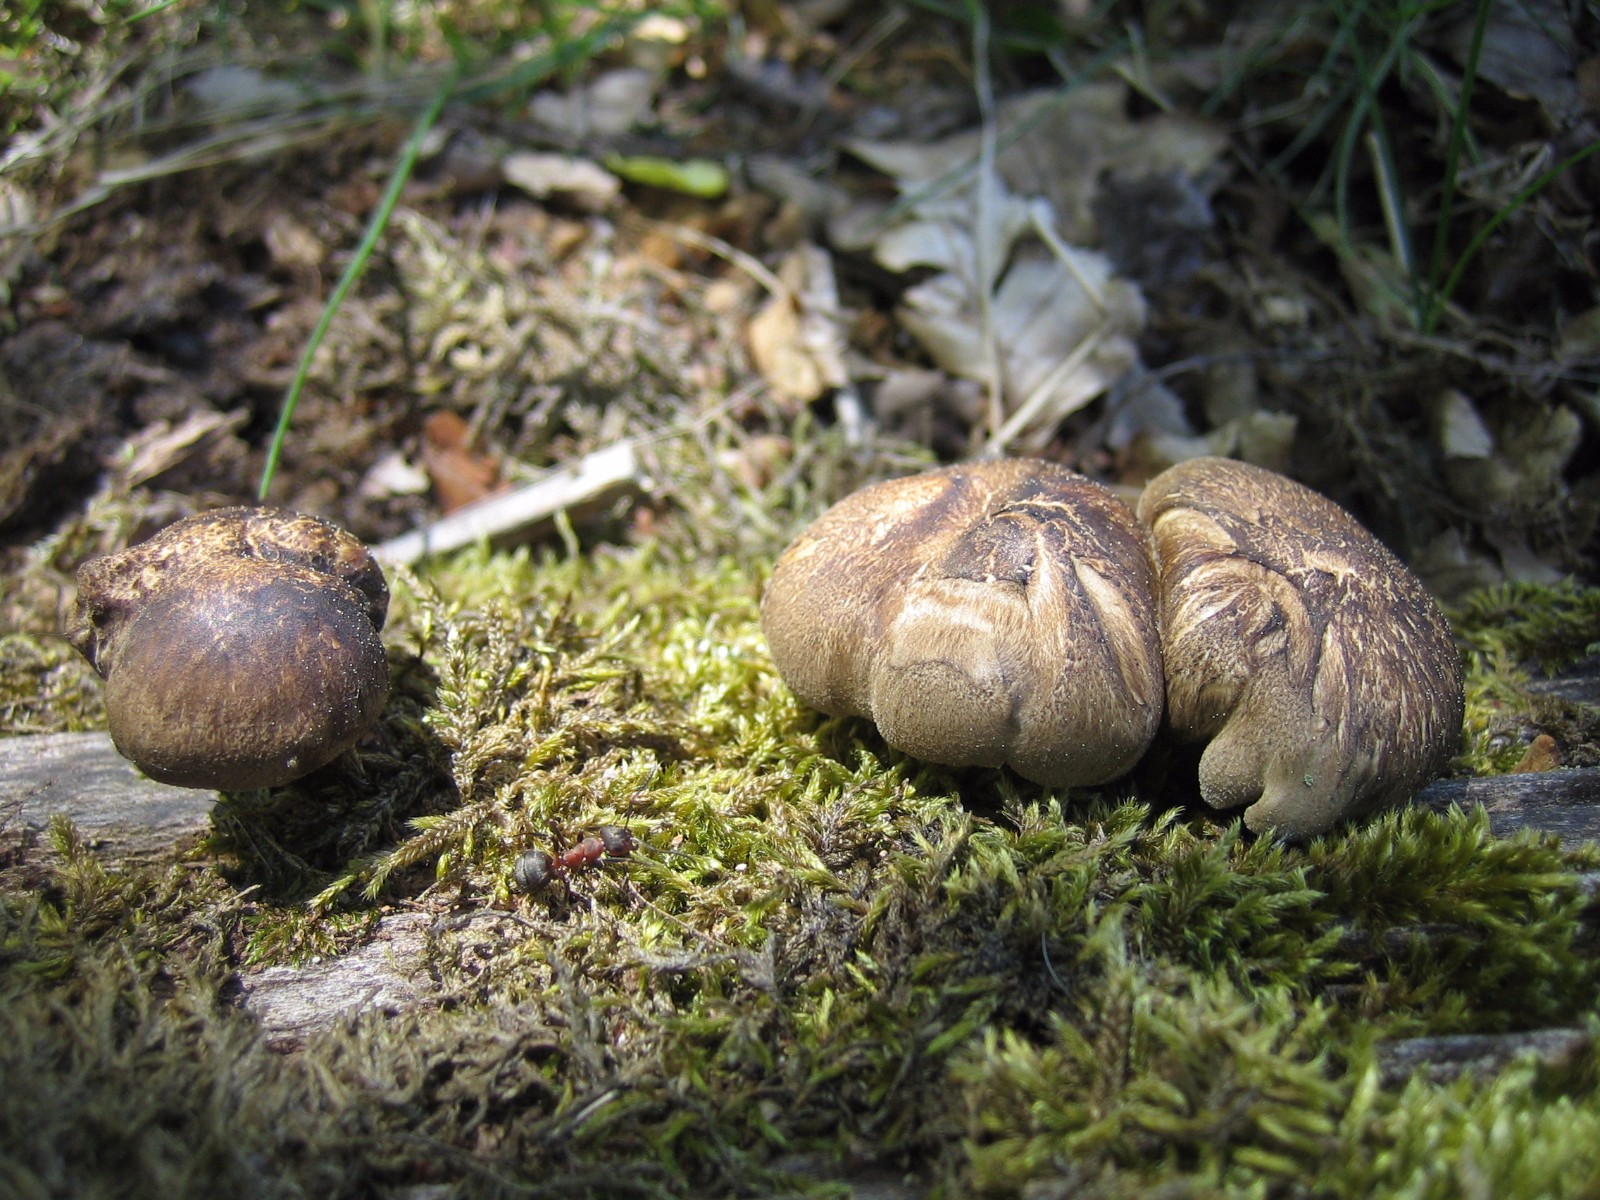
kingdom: Fungi
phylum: Basidiomycota
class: Agaricomycetes
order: Polyporales
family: Polyporaceae
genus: Lentinus
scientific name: Lentinus substrictus
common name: forårs-stilkporesvamp
